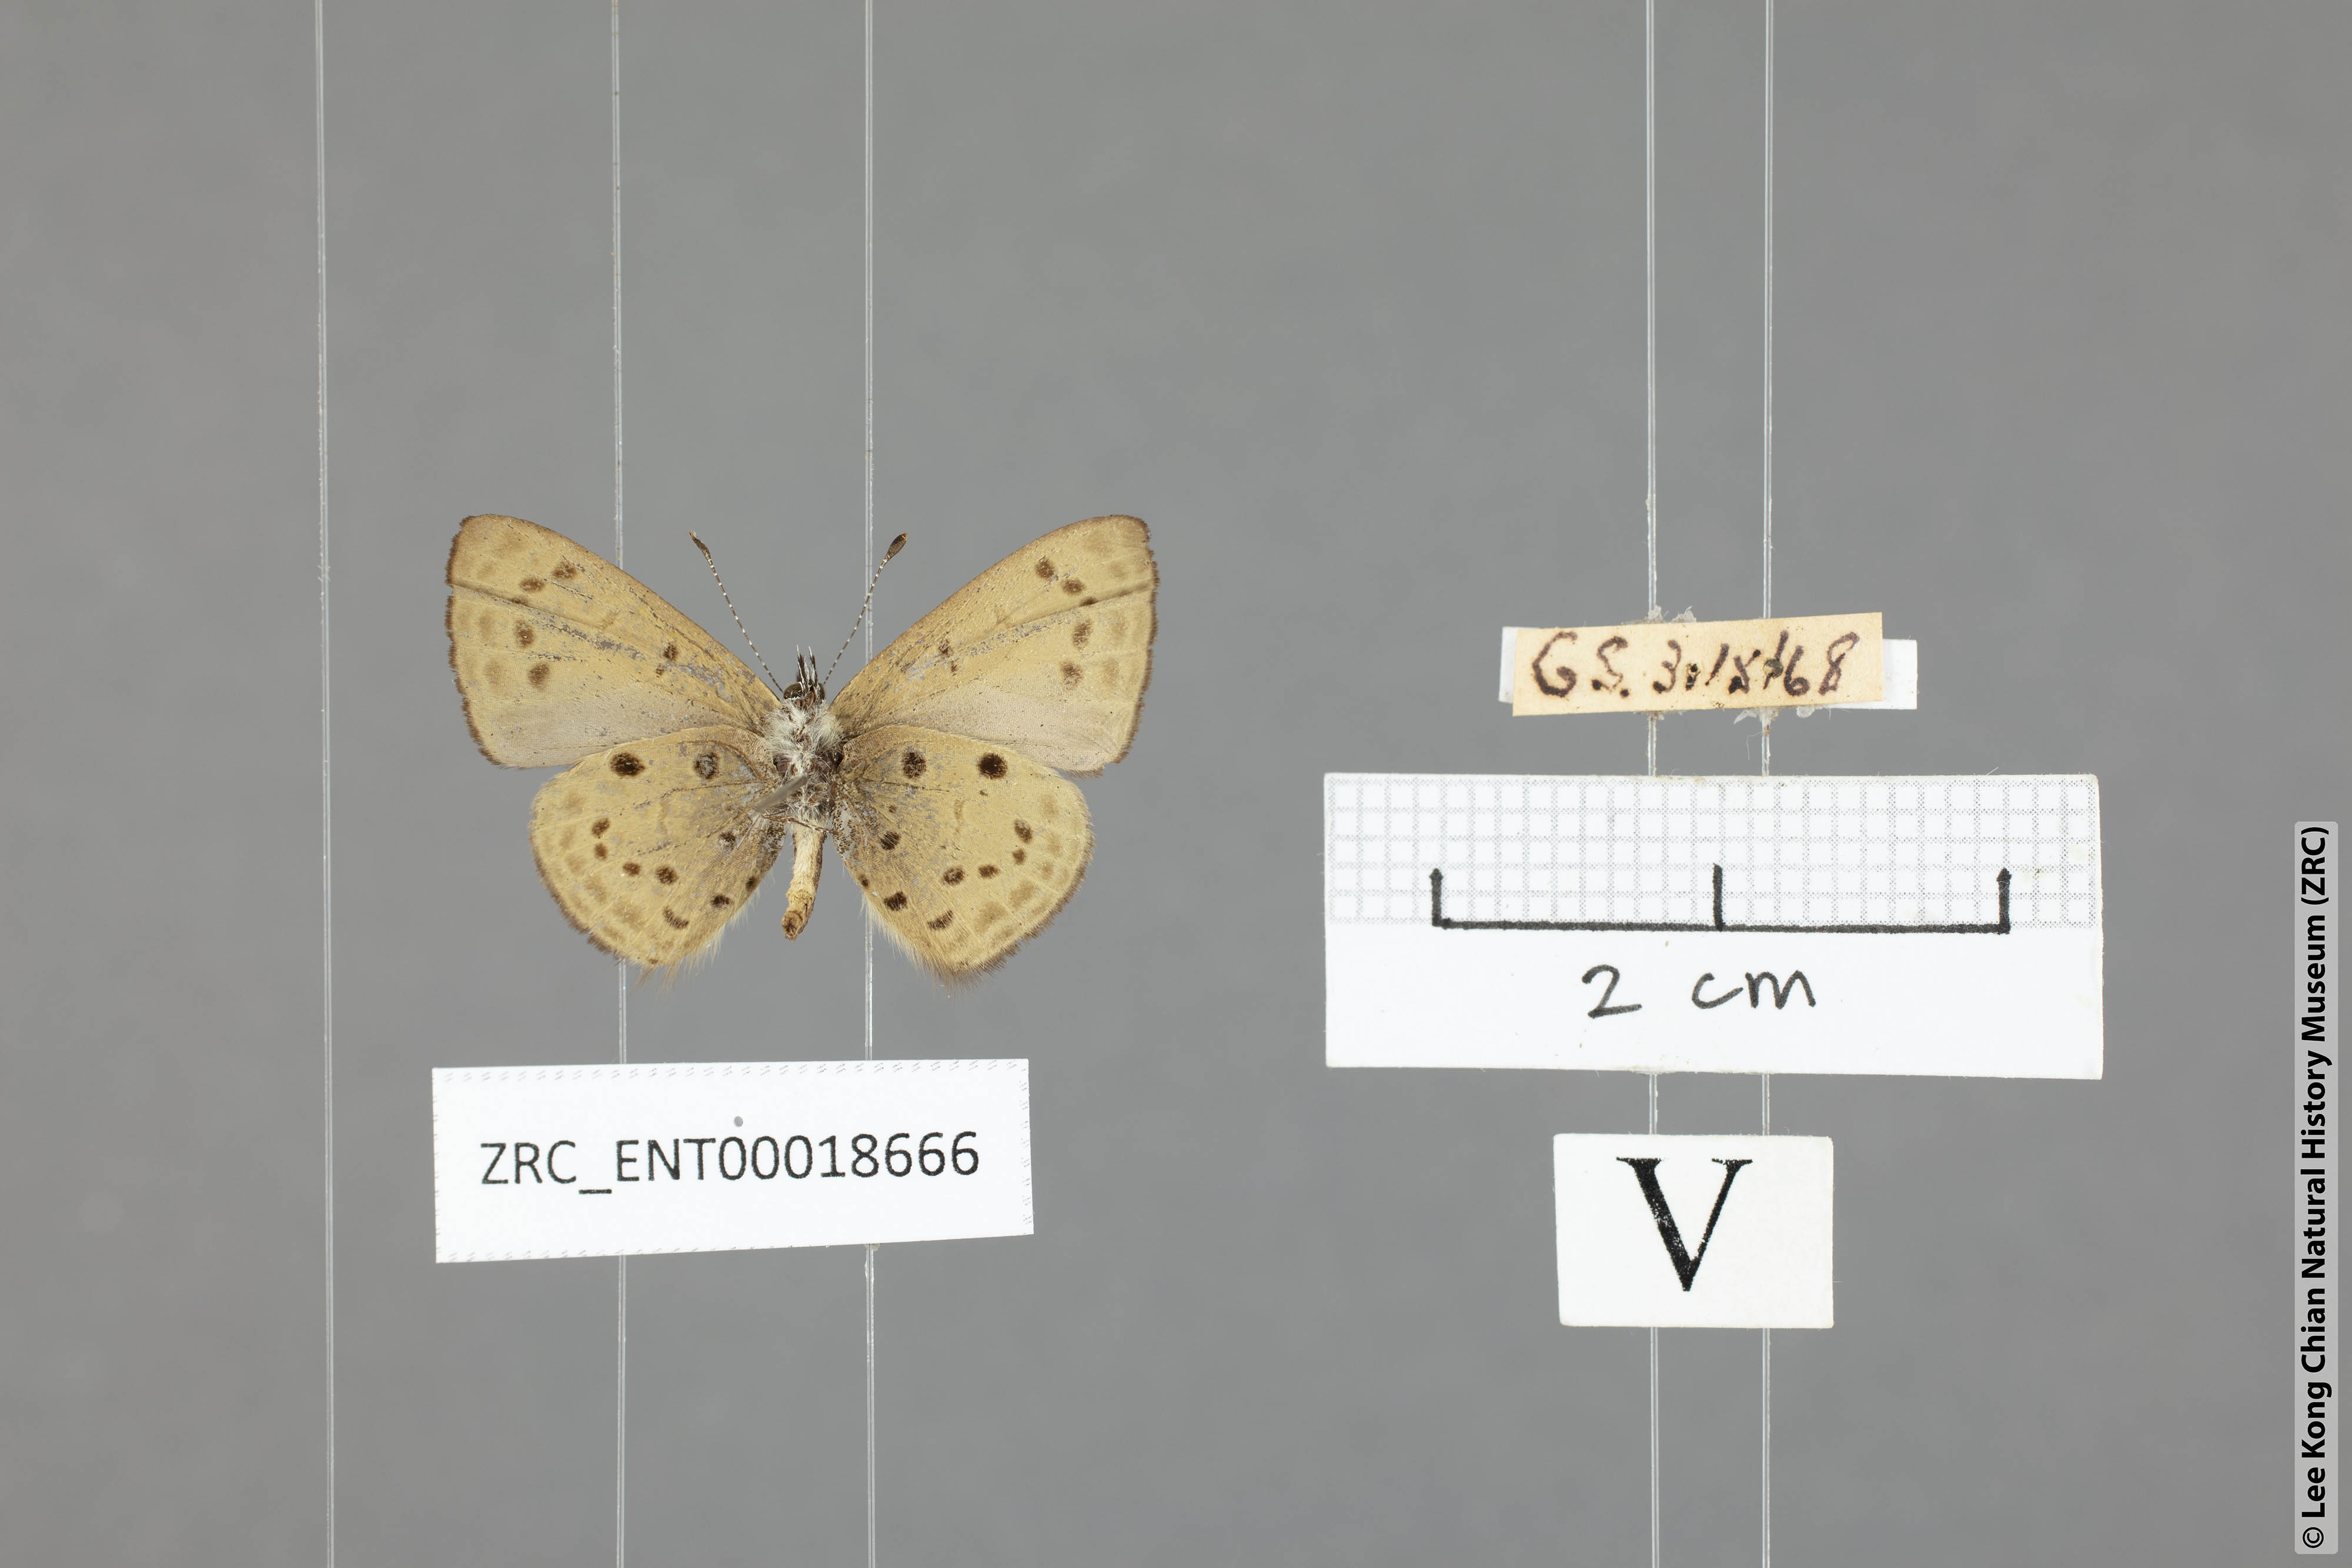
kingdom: Animalia
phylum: Arthropoda
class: Insecta
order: Lepidoptera
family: Lycaenidae
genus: Una
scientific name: Una usta
